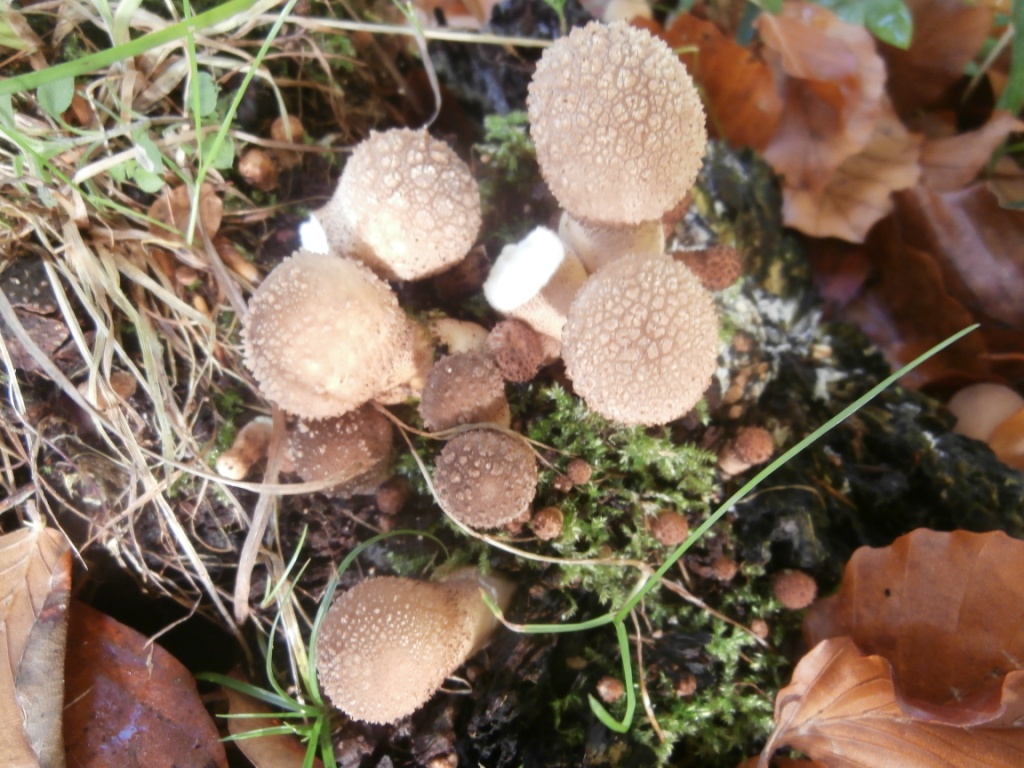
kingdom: Fungi
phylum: Basidiomycota
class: Agaricomycetes
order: Agaricales
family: Lycoperdaceae
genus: Apioperdon
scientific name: Apioperdon pyriforme
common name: pære-støvbold
